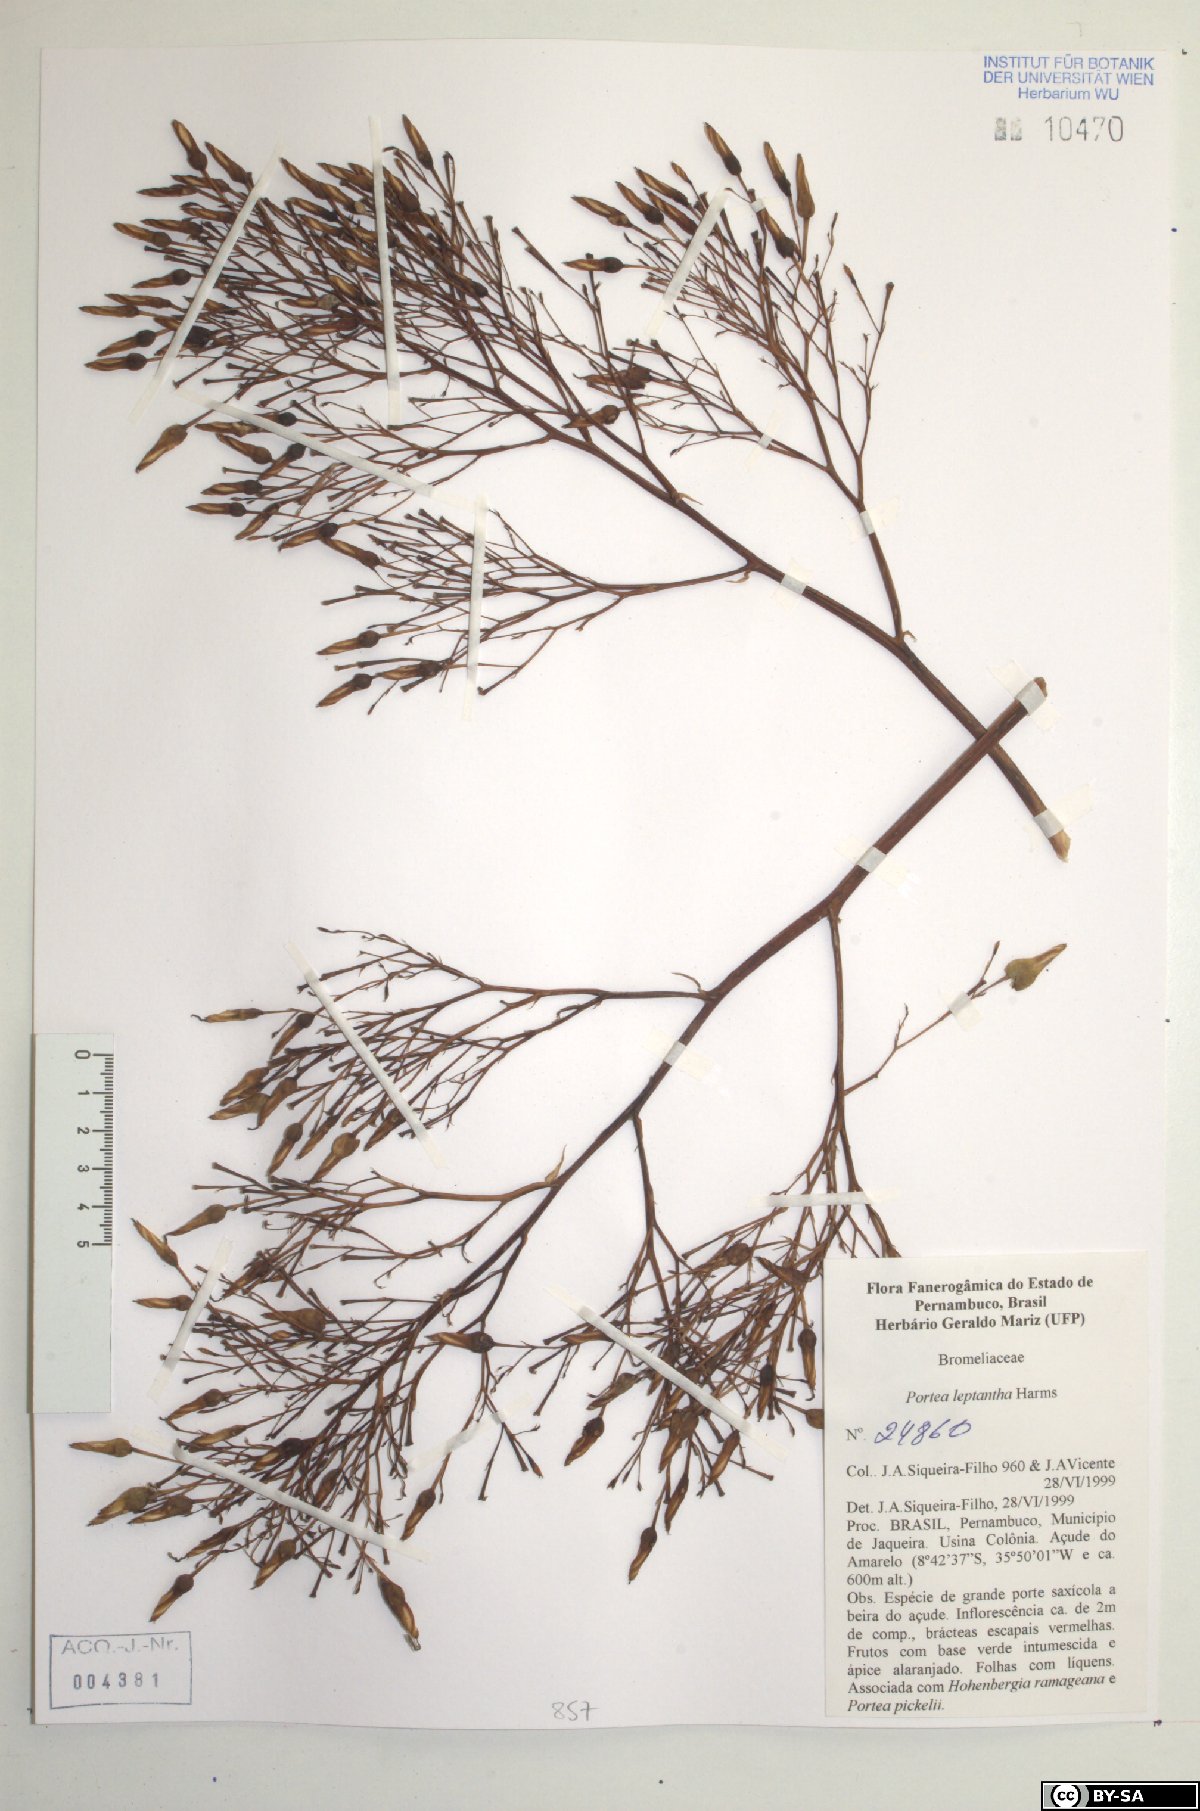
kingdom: Plantae
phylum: Tracheophyta
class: Liliopsida
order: Poales
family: Bromeliaceae
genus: Aechmea
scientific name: Aechmea leptantha
